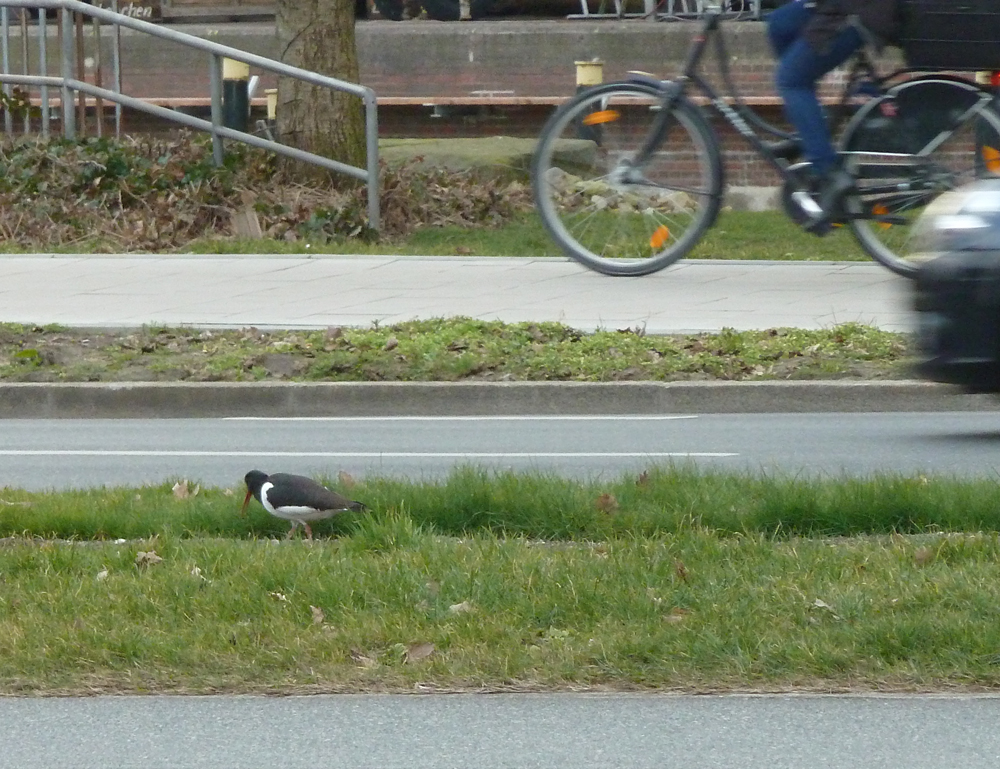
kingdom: Animalia
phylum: Chordata
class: Aves
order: Charadriiformes
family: Haematopodidae
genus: Haematopus
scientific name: Haematopus ostralegus
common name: Eurasian oystercatcher
